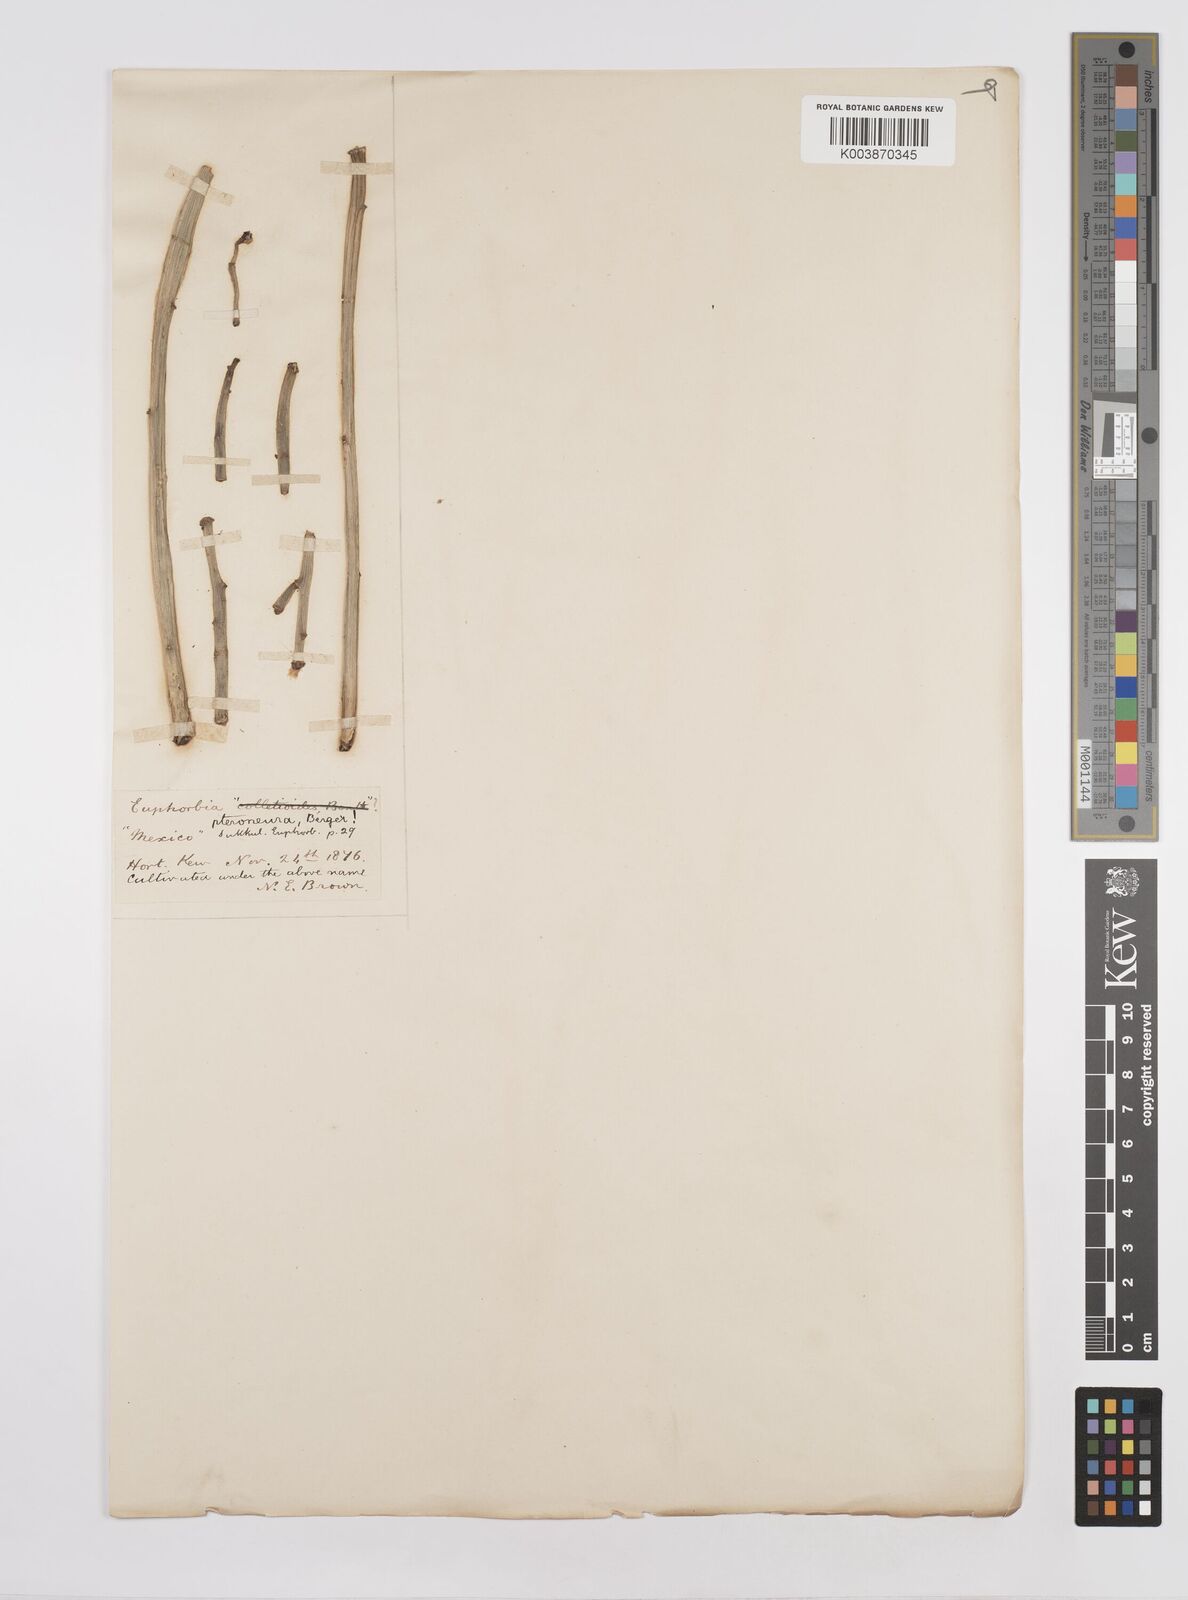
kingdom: Plantae
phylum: Tracheophyta
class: Magnoliopsida
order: Malpighiales
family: Euphorbiaceae
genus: Euphorbia
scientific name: Euphorbia pteroneura
